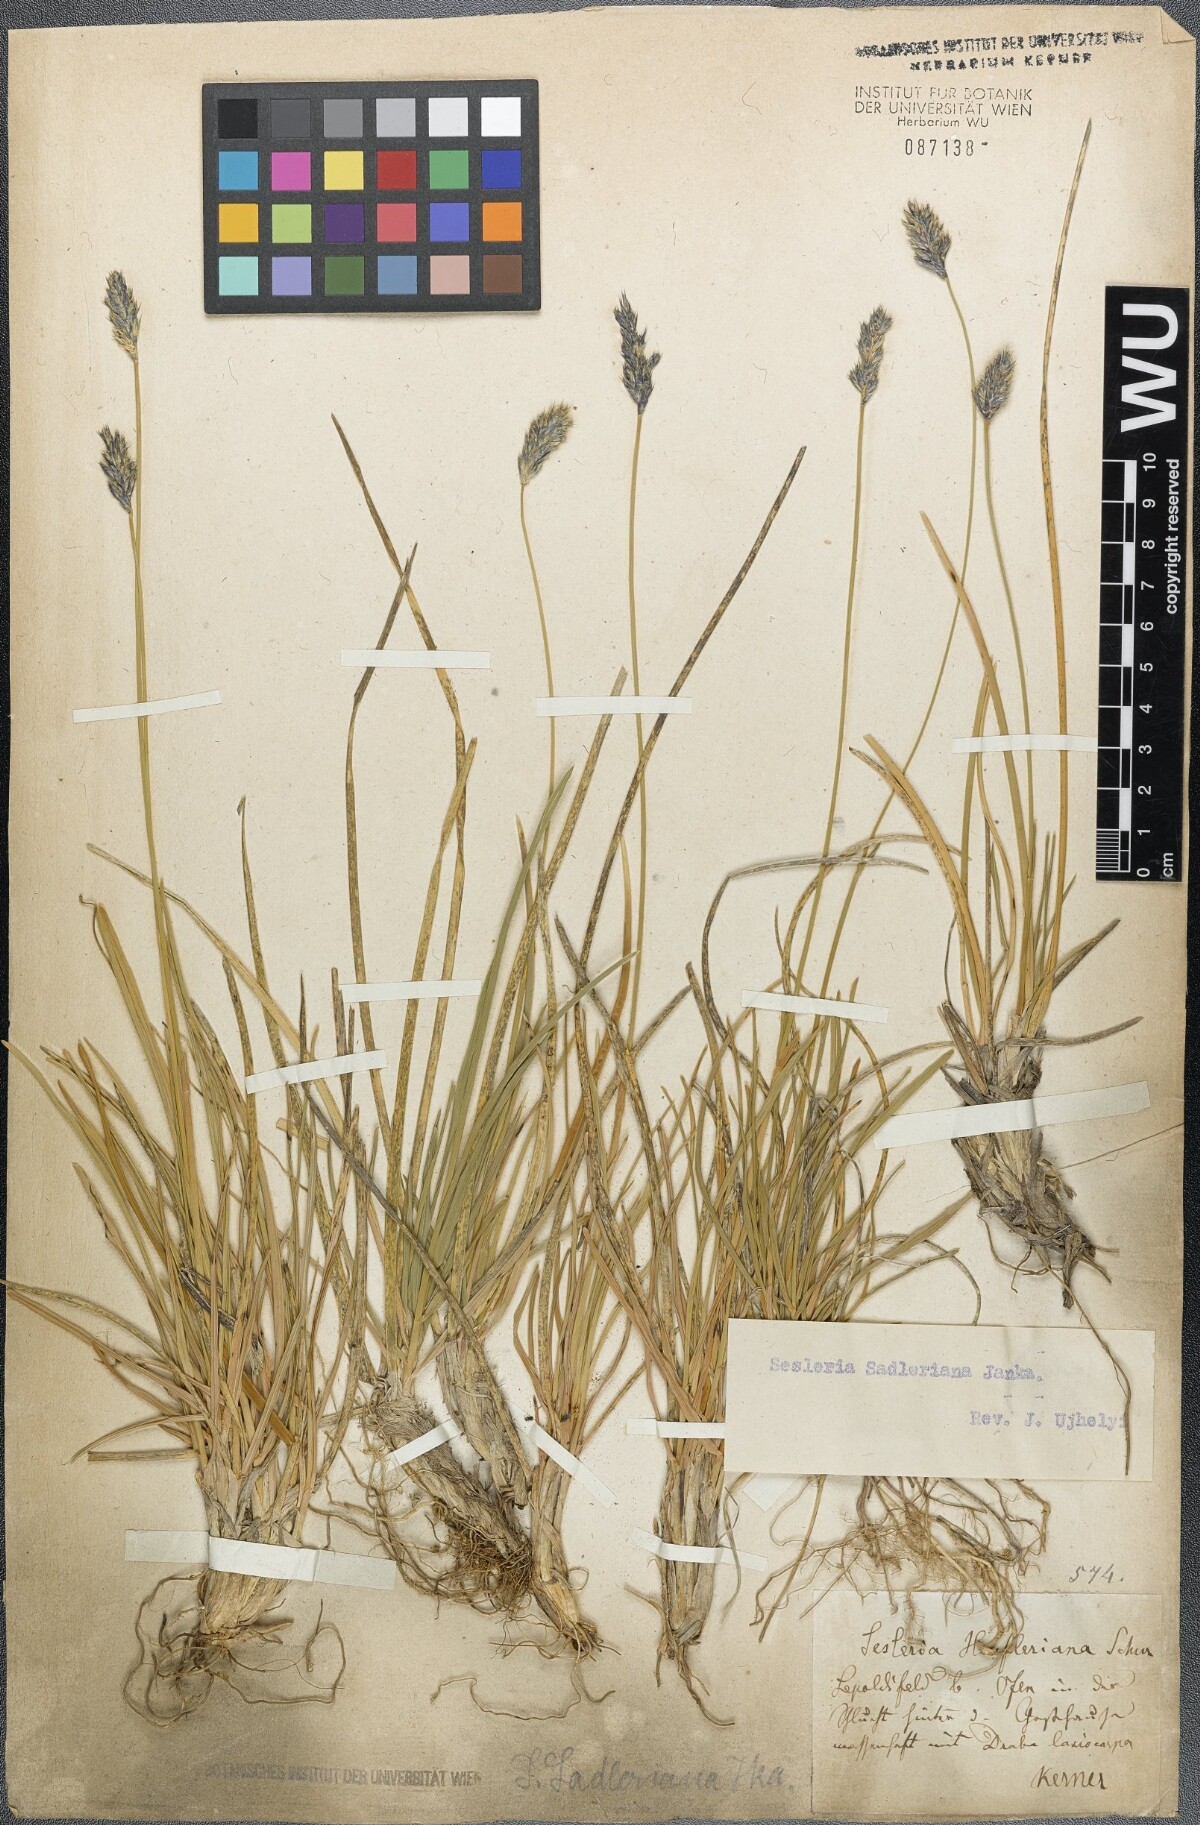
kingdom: Plantae
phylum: Tracheophyta
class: Liliopsida
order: Poales
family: Poaceae
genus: Sesleria
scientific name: Sesleria sadleriana
